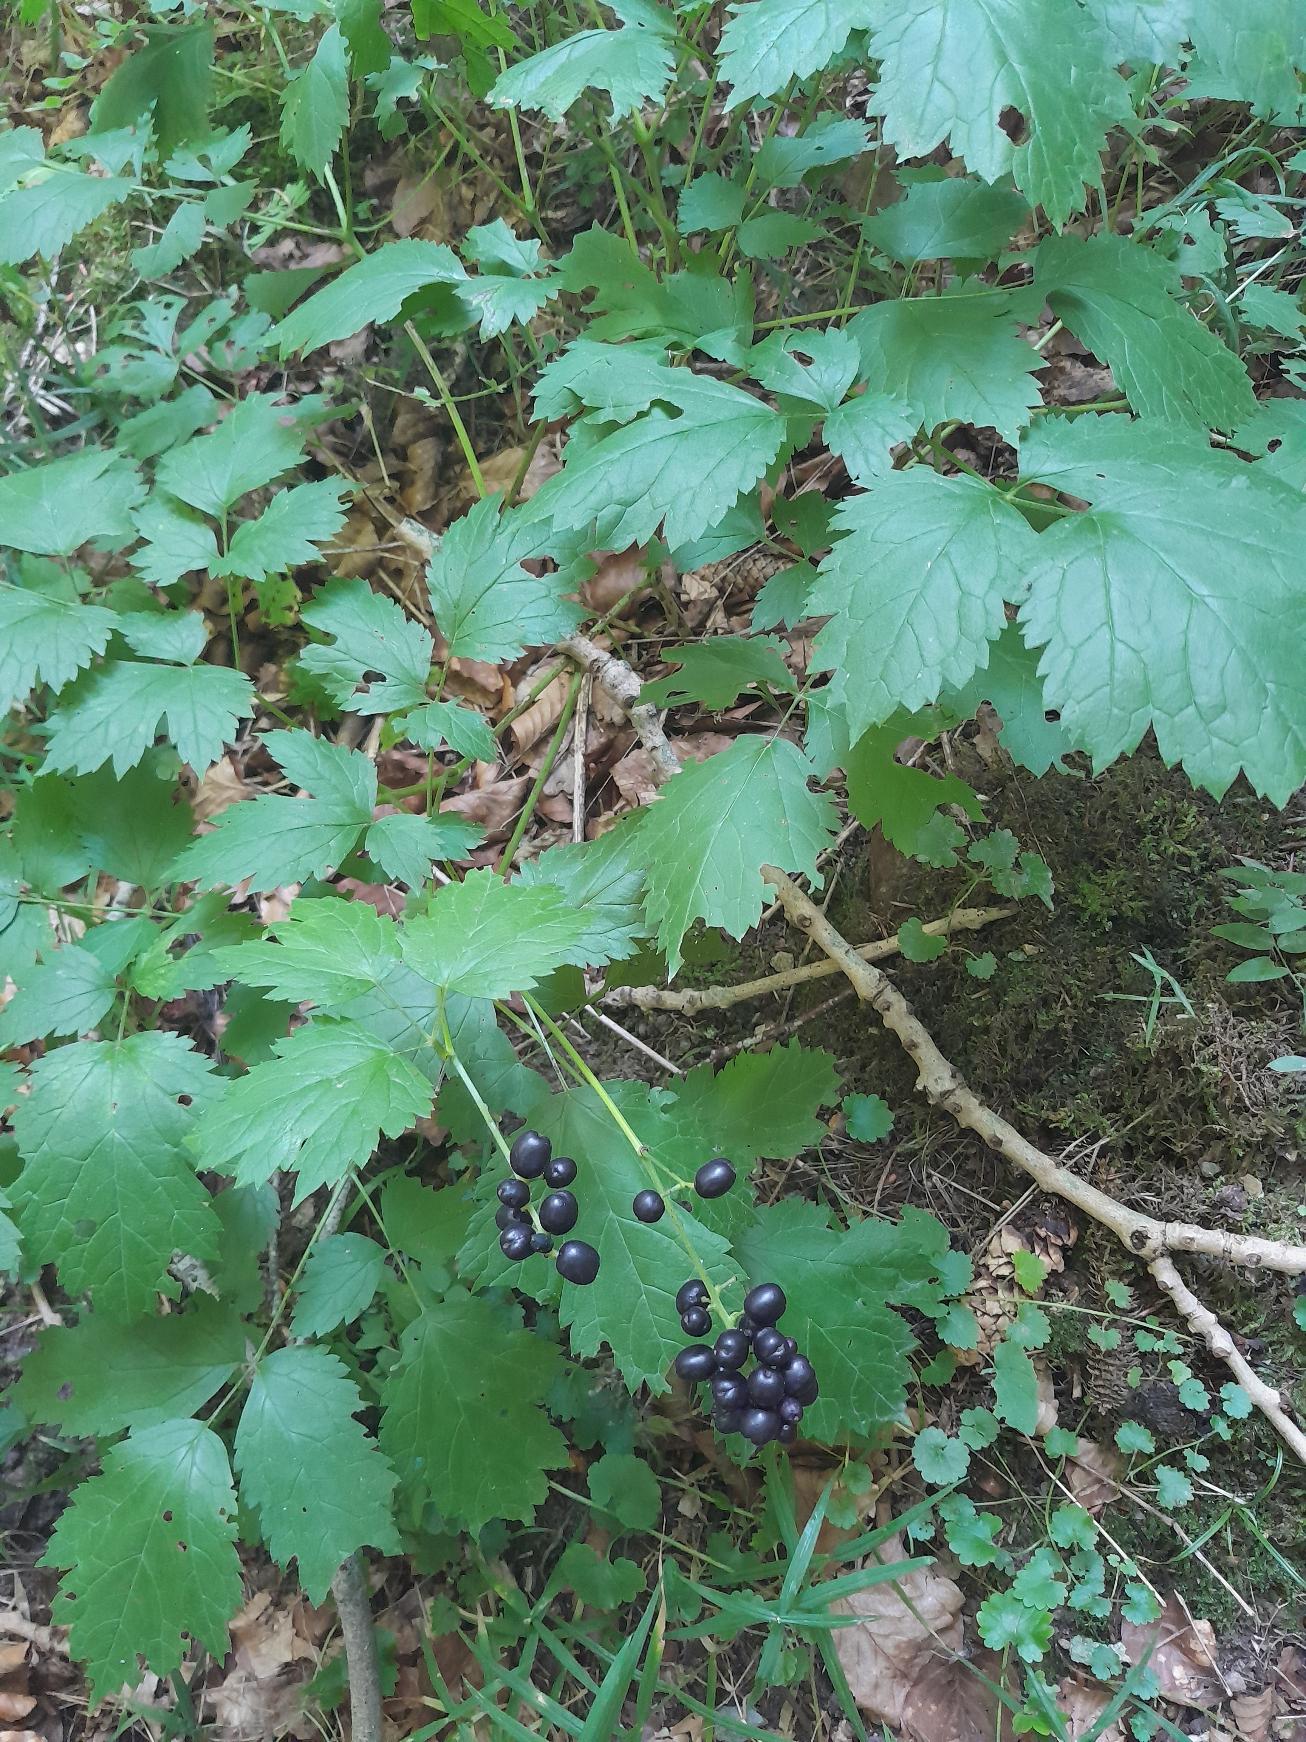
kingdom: Plantae
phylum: Tracheophyta
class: Magnoliopsida
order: Ranunculales
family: Ranunculaceae
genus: Actaea
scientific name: Actaea spicata
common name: Druemunke
